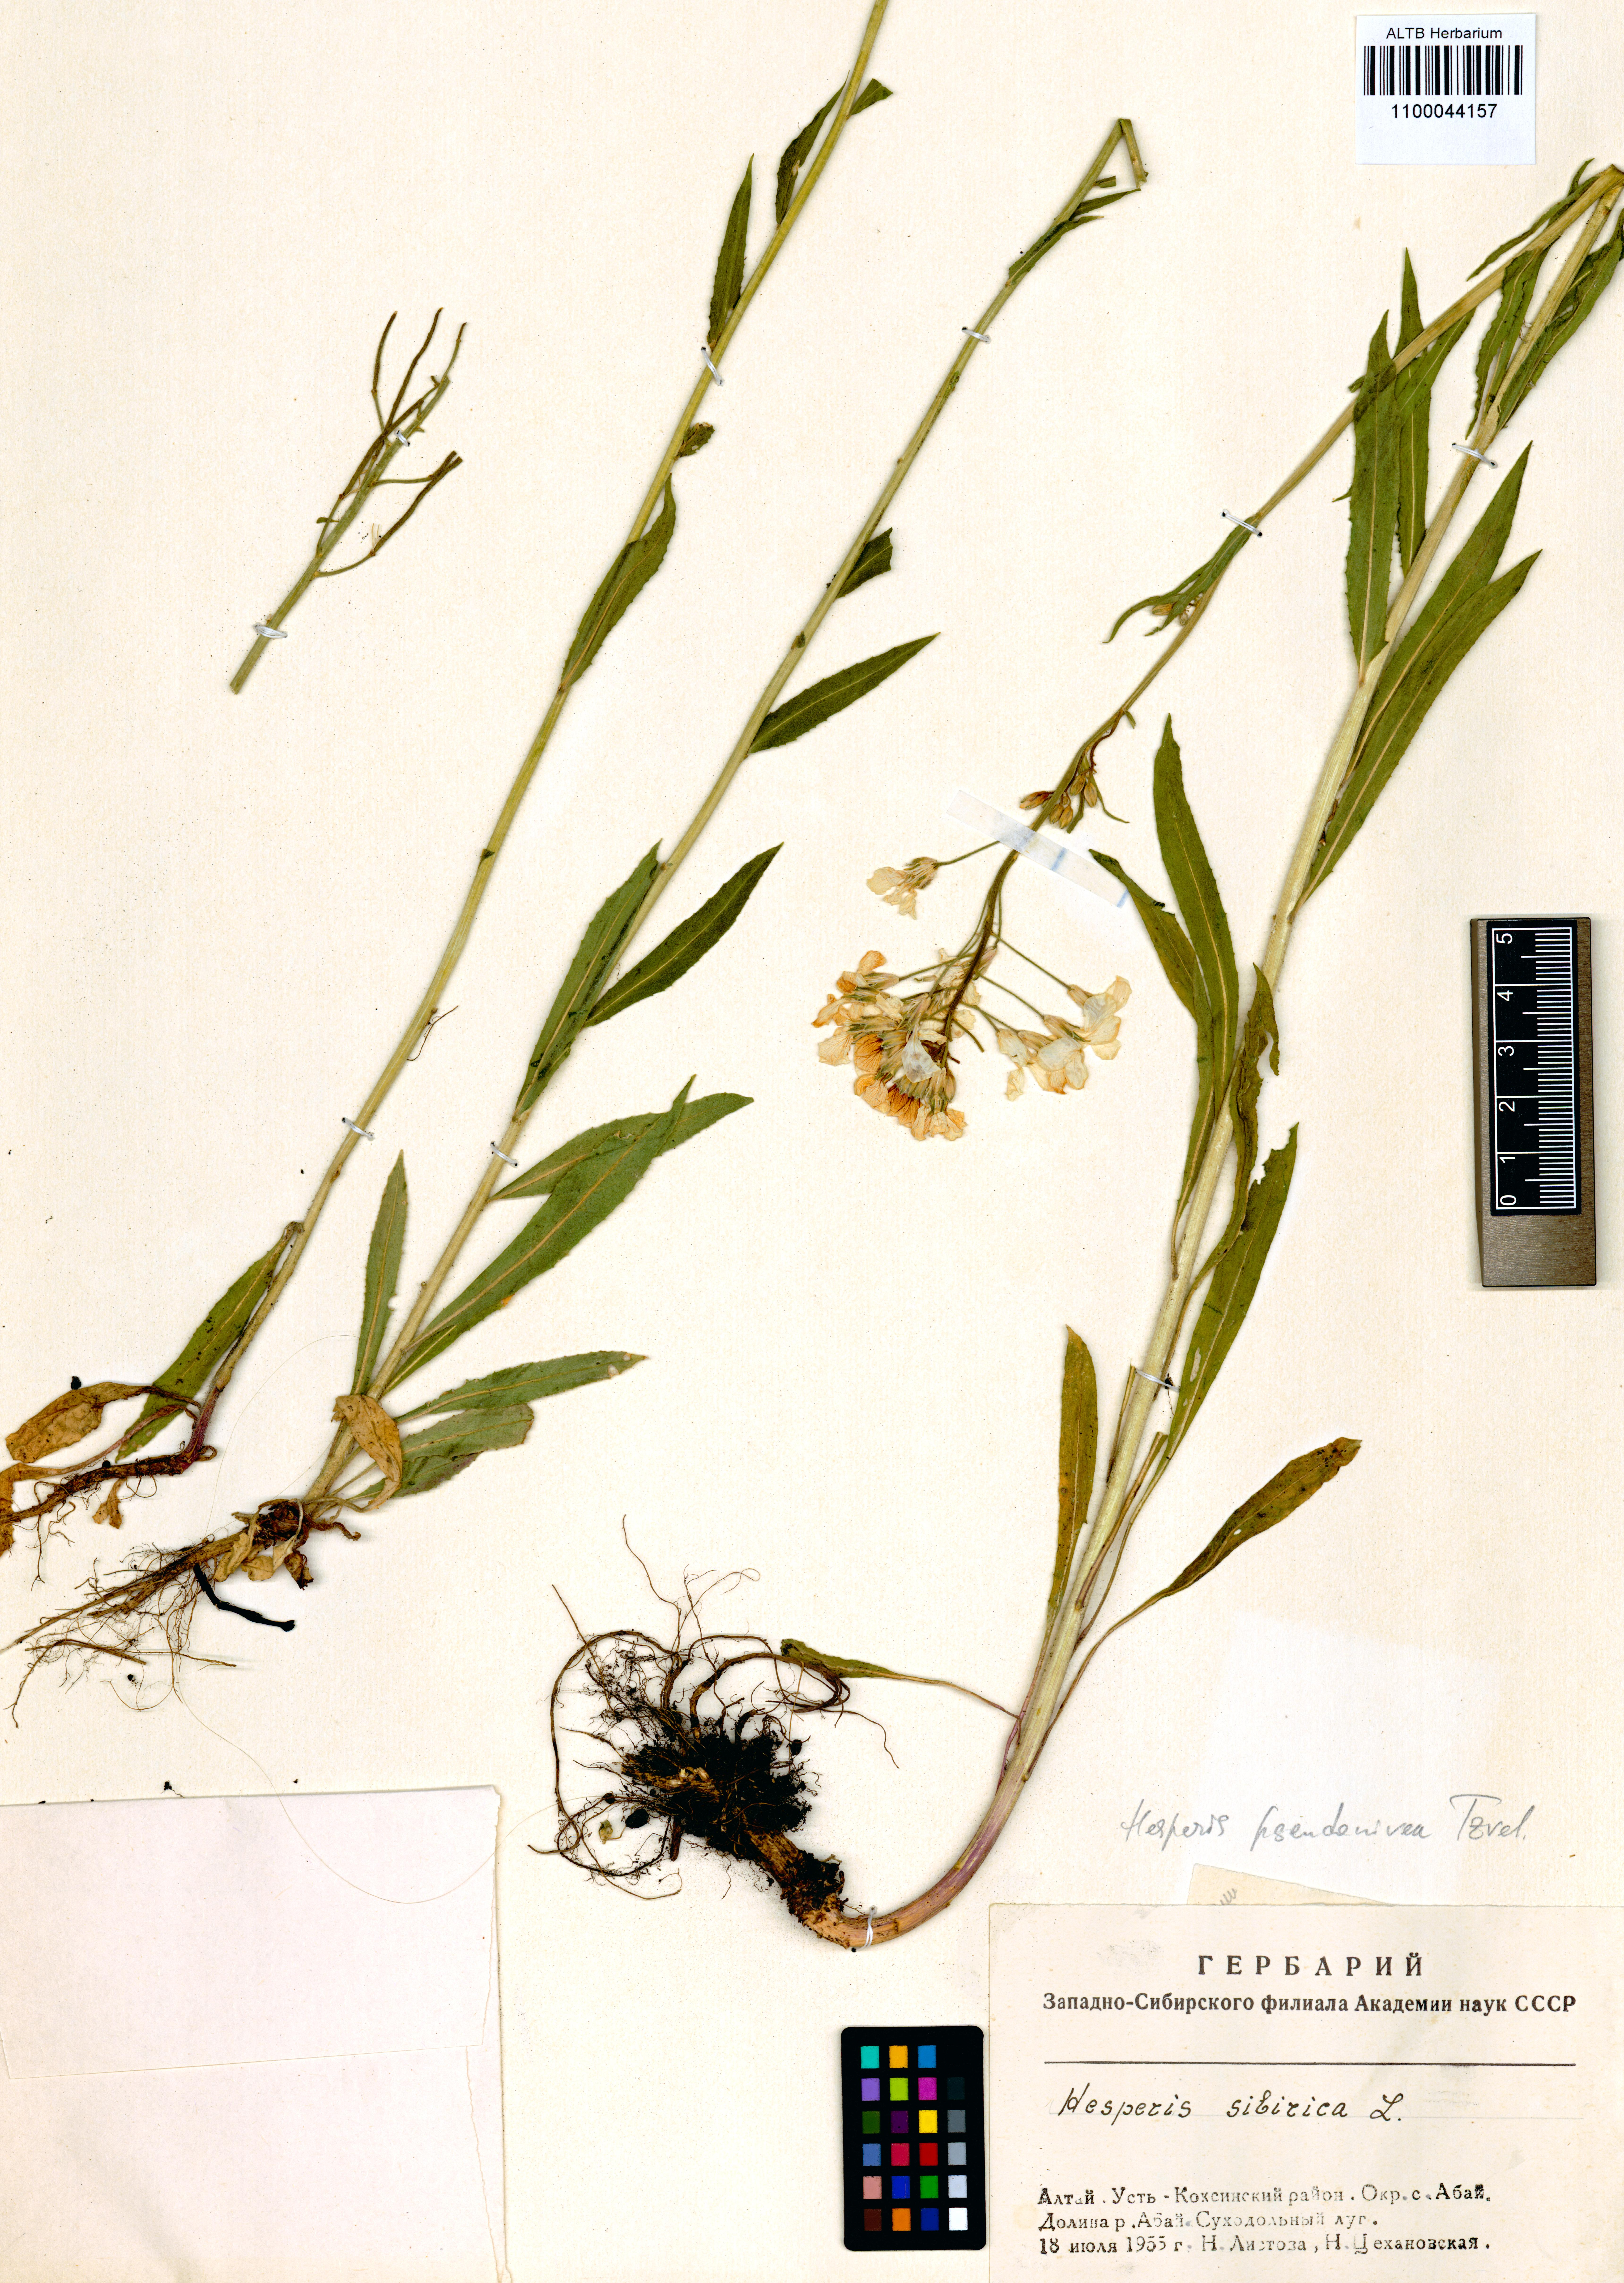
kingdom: Plantae
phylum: Tracheophyta
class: Magnoliopsida
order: Brassicales
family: Brassicaceae
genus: Hesperis
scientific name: Hesperis sibirica
